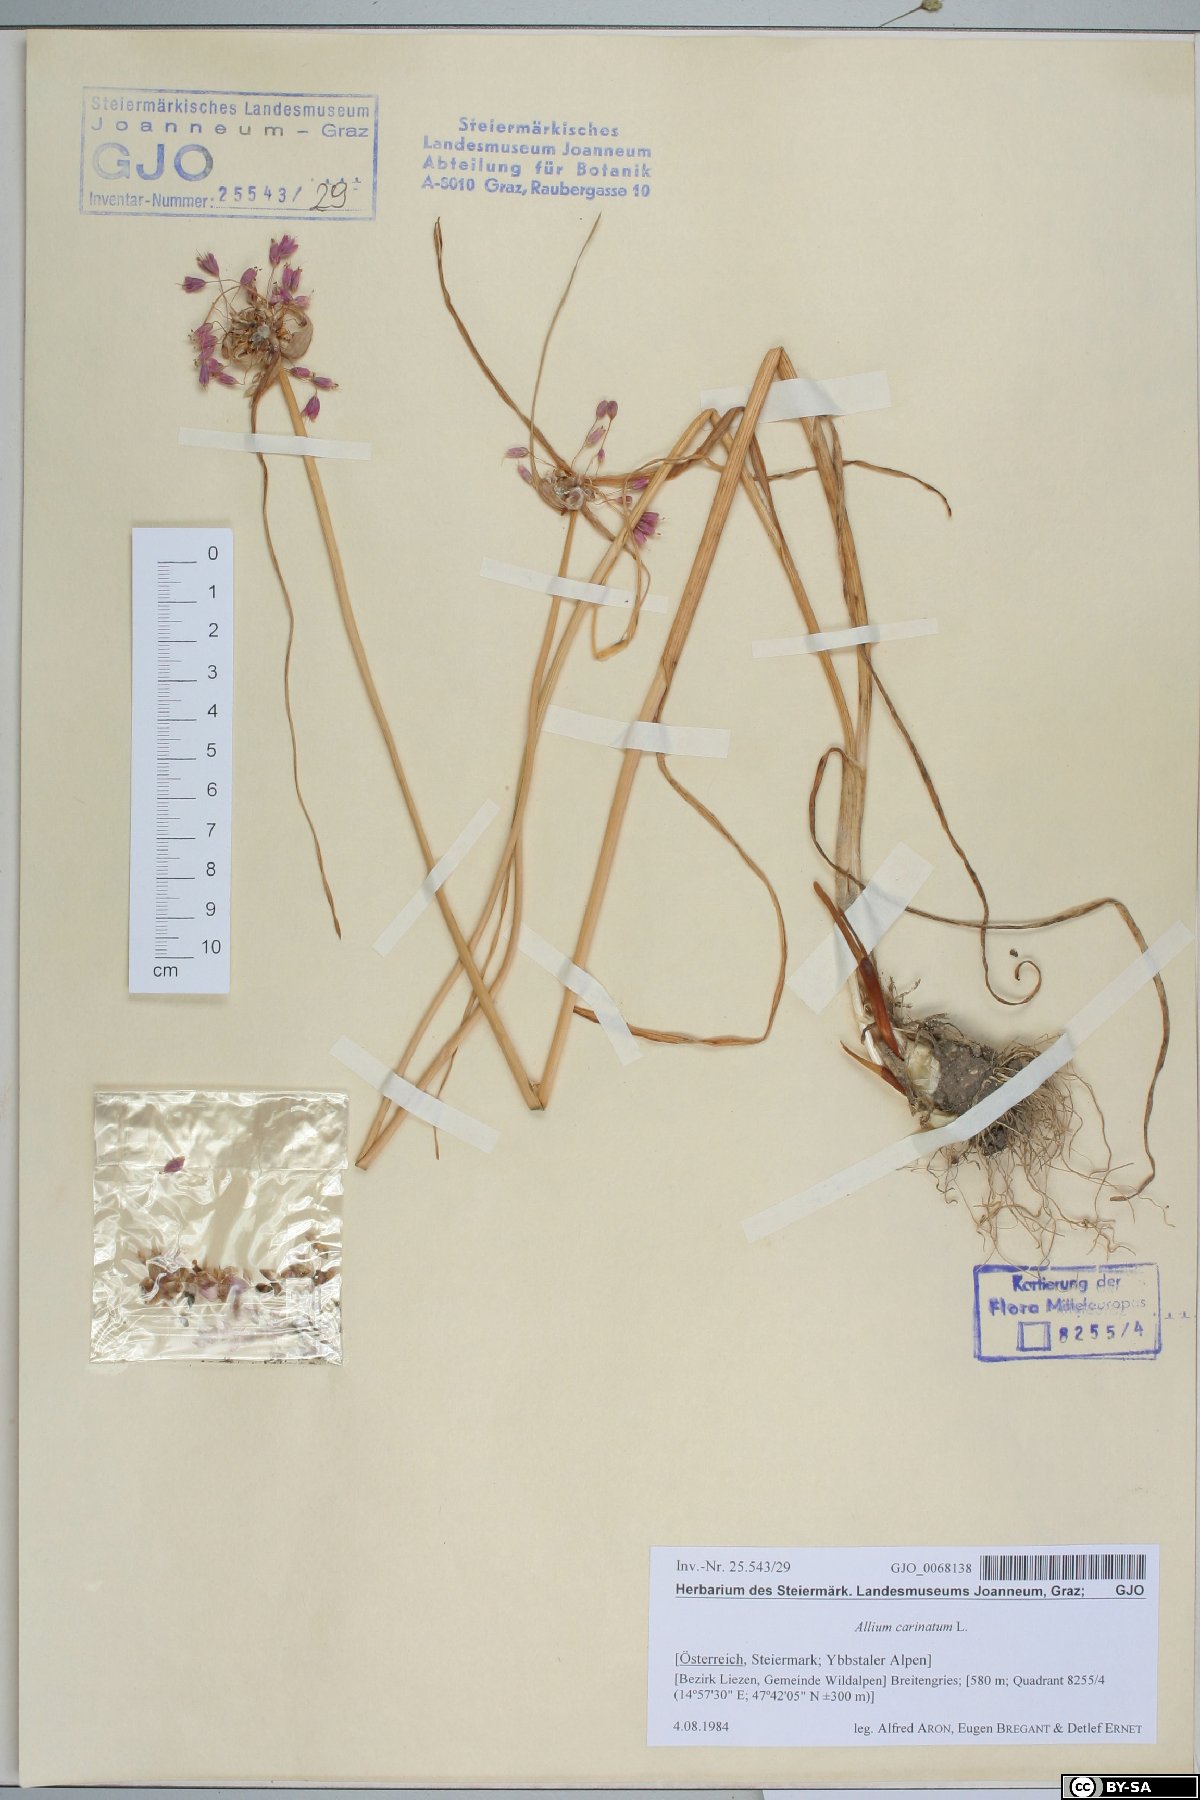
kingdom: Plantae
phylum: Tracheophyta
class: Liliopsida
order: Asparagales
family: Amaryllidaceae
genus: Allium
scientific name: Allium carinatum
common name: Keeled garlic
